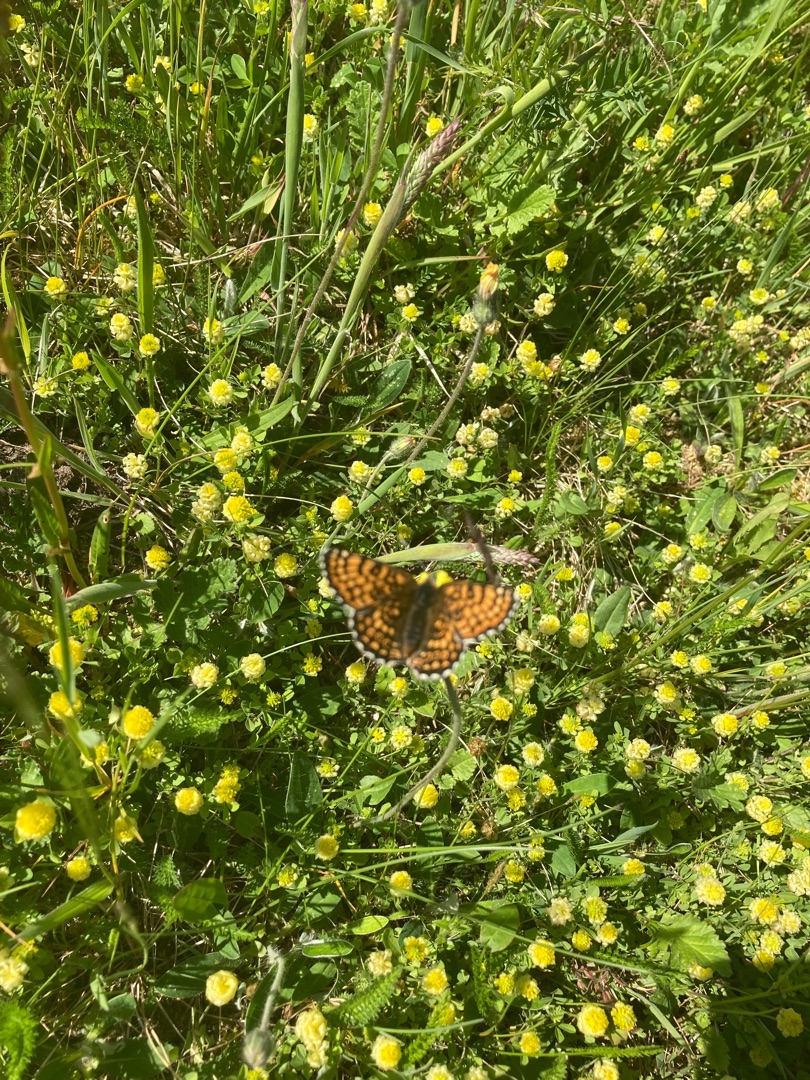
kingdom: Animalia
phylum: Arthropoda
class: Insecta
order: Lepidoptera
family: Nymphalidae
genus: Melitaea
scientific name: Melitaea cinxia
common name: Okkergul pletvinge
